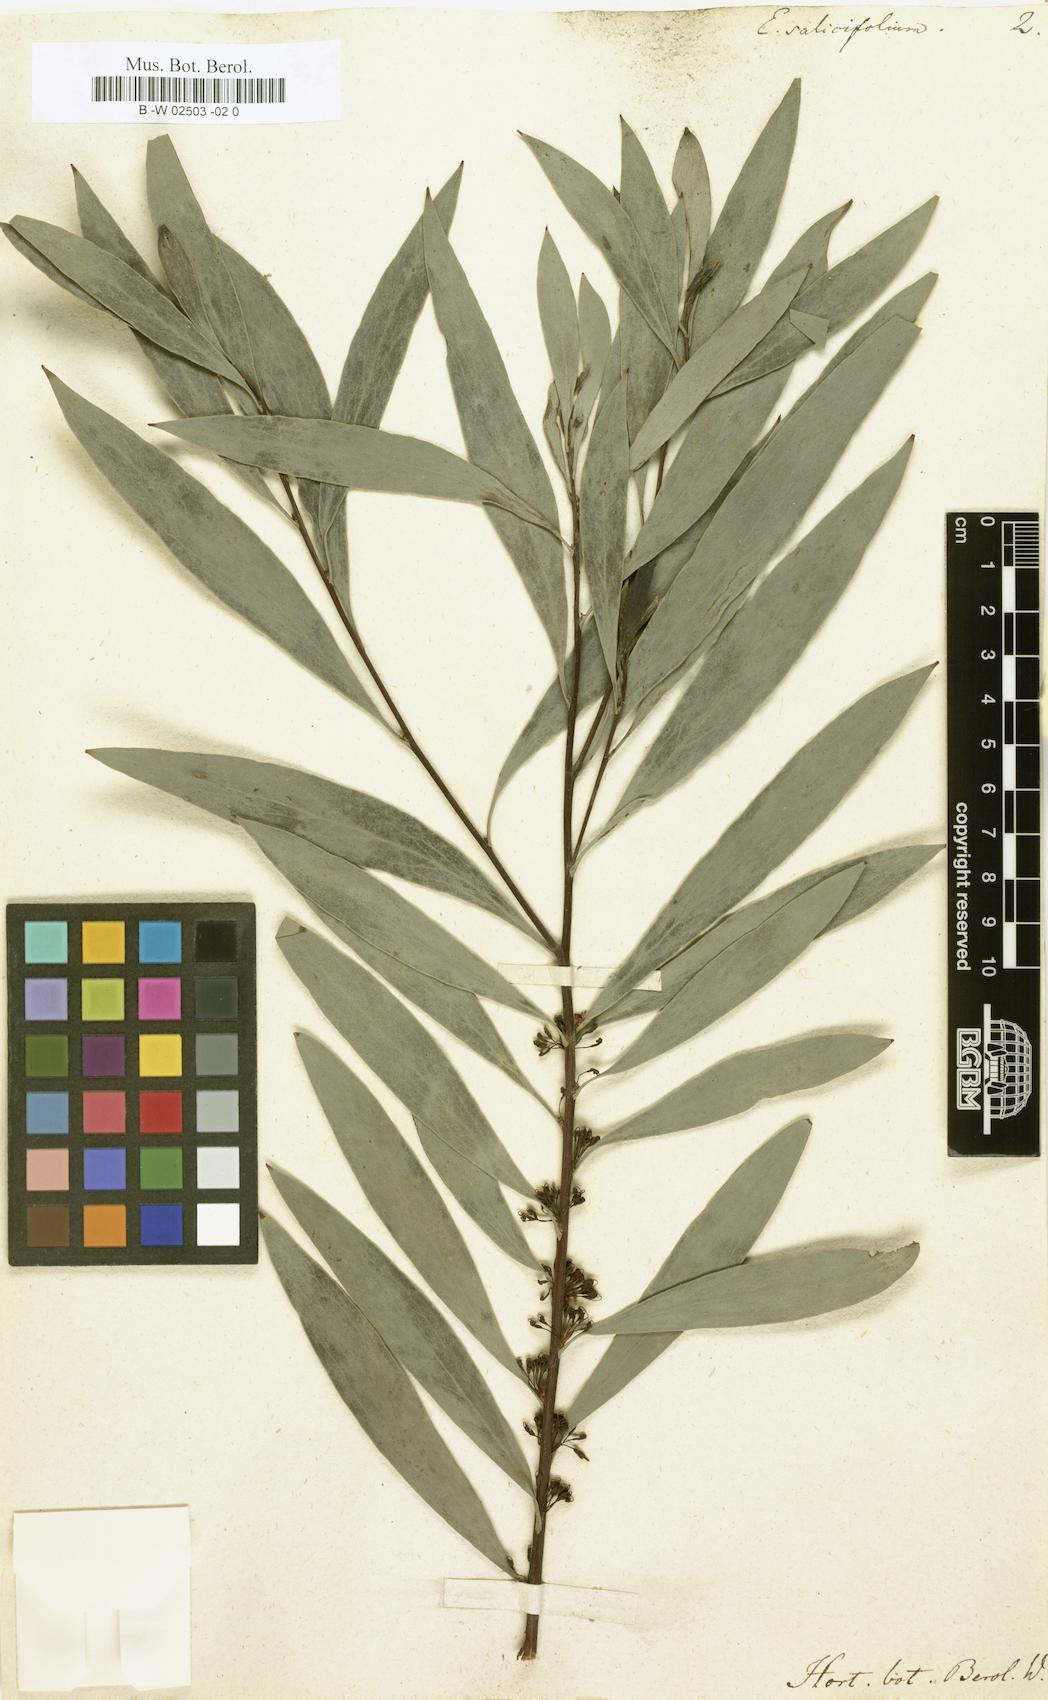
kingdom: Plantae
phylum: Tracheophyta
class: Magnoliopsida
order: Proteales
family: Proteaceae
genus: Hakea
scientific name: Hakea salicifolia
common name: Willow hakea
